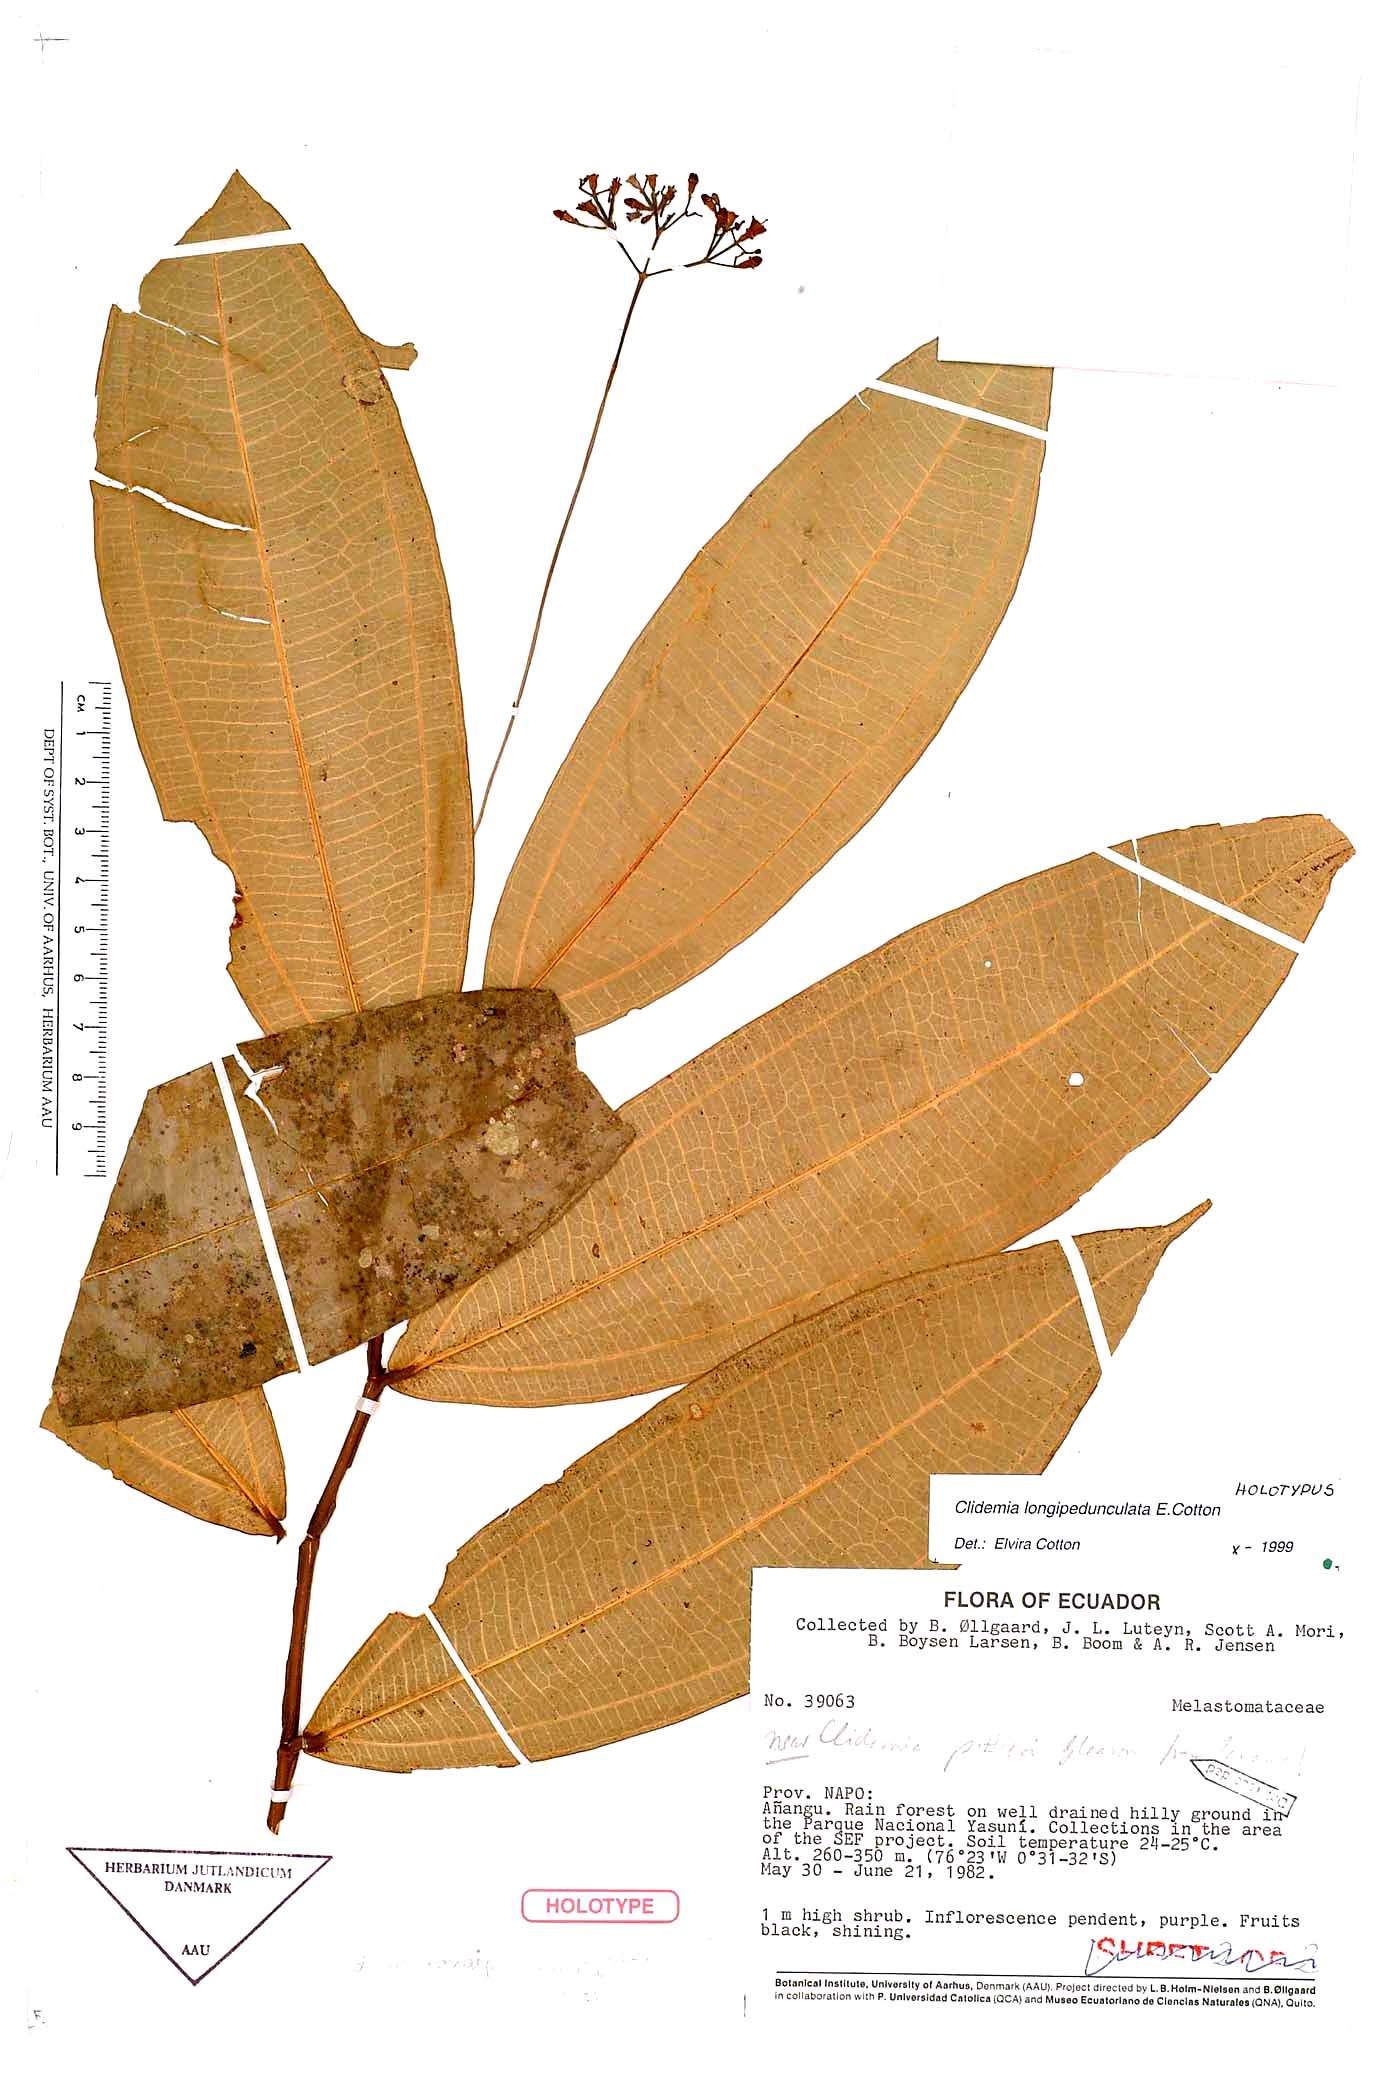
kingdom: Plantae
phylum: Tracheophyta
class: Magnoliopsida
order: Myrtales
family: Melastomataceae
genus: Miconia
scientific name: Miconia cottoniana
